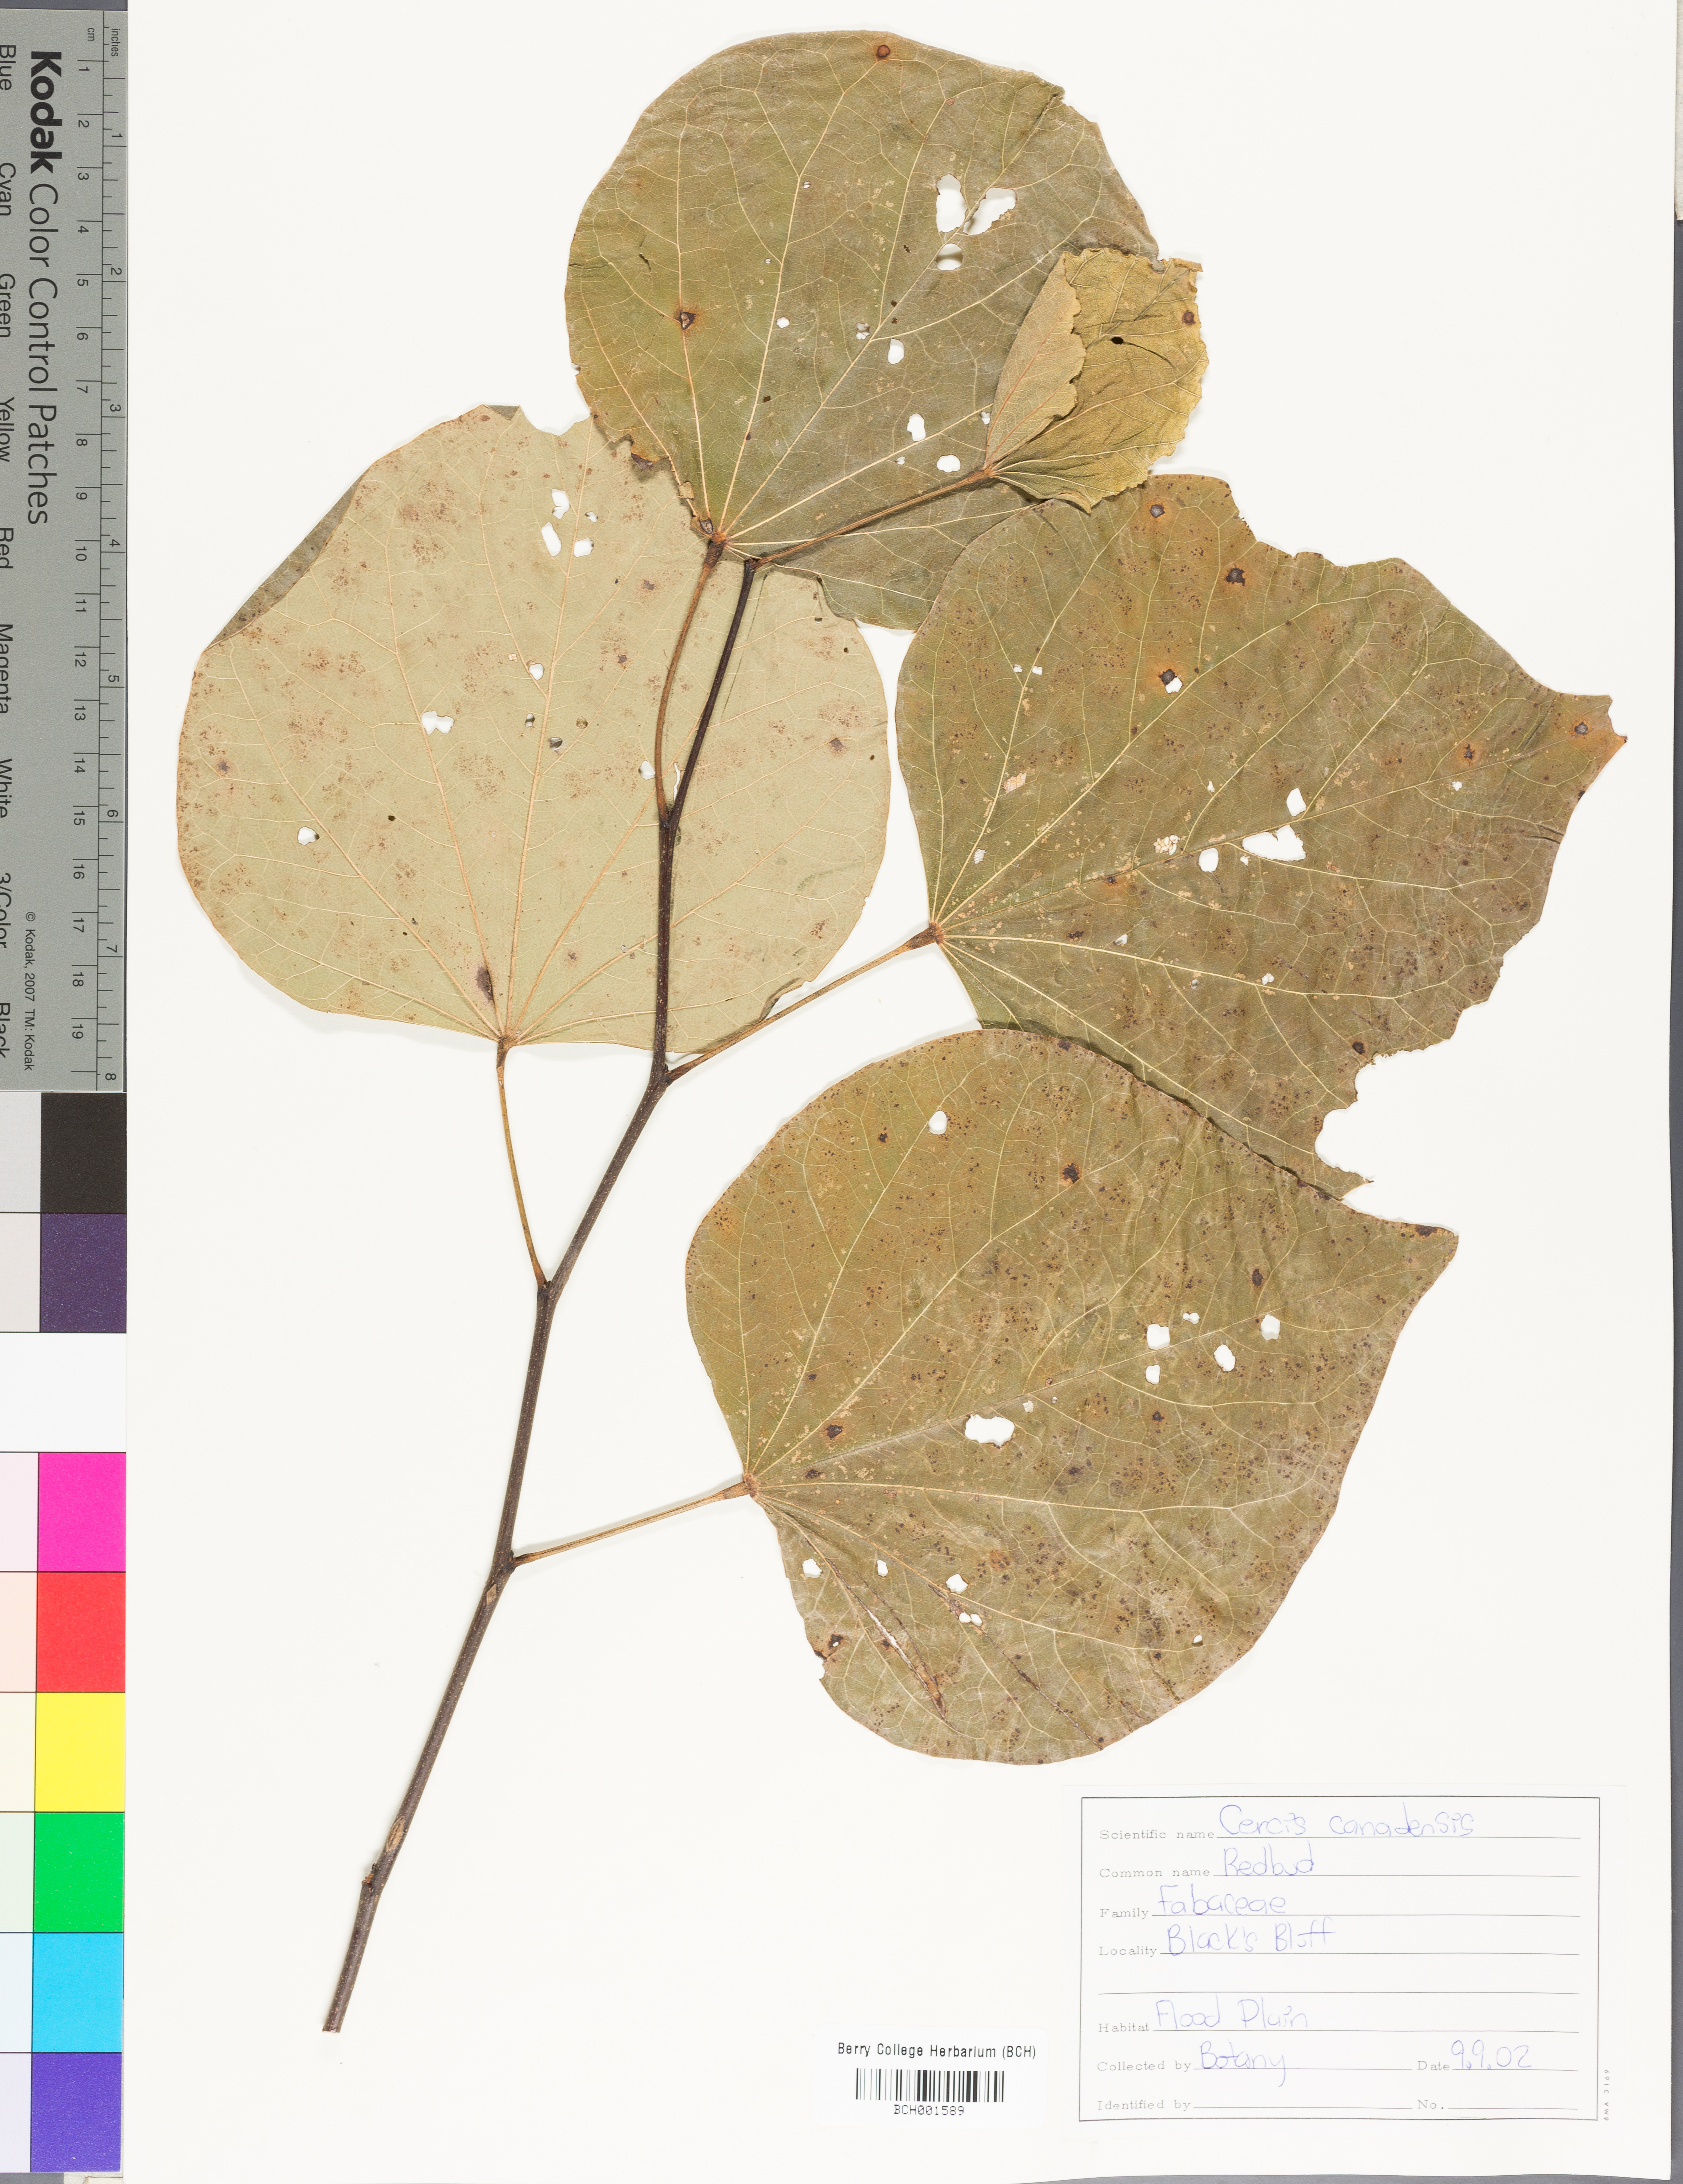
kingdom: Plantae
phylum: Tracheophyta
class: Magnoliopsida
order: Fabales
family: Fabaceae
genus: Cercis
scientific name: Cercis canadensis
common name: Eastern redbud
